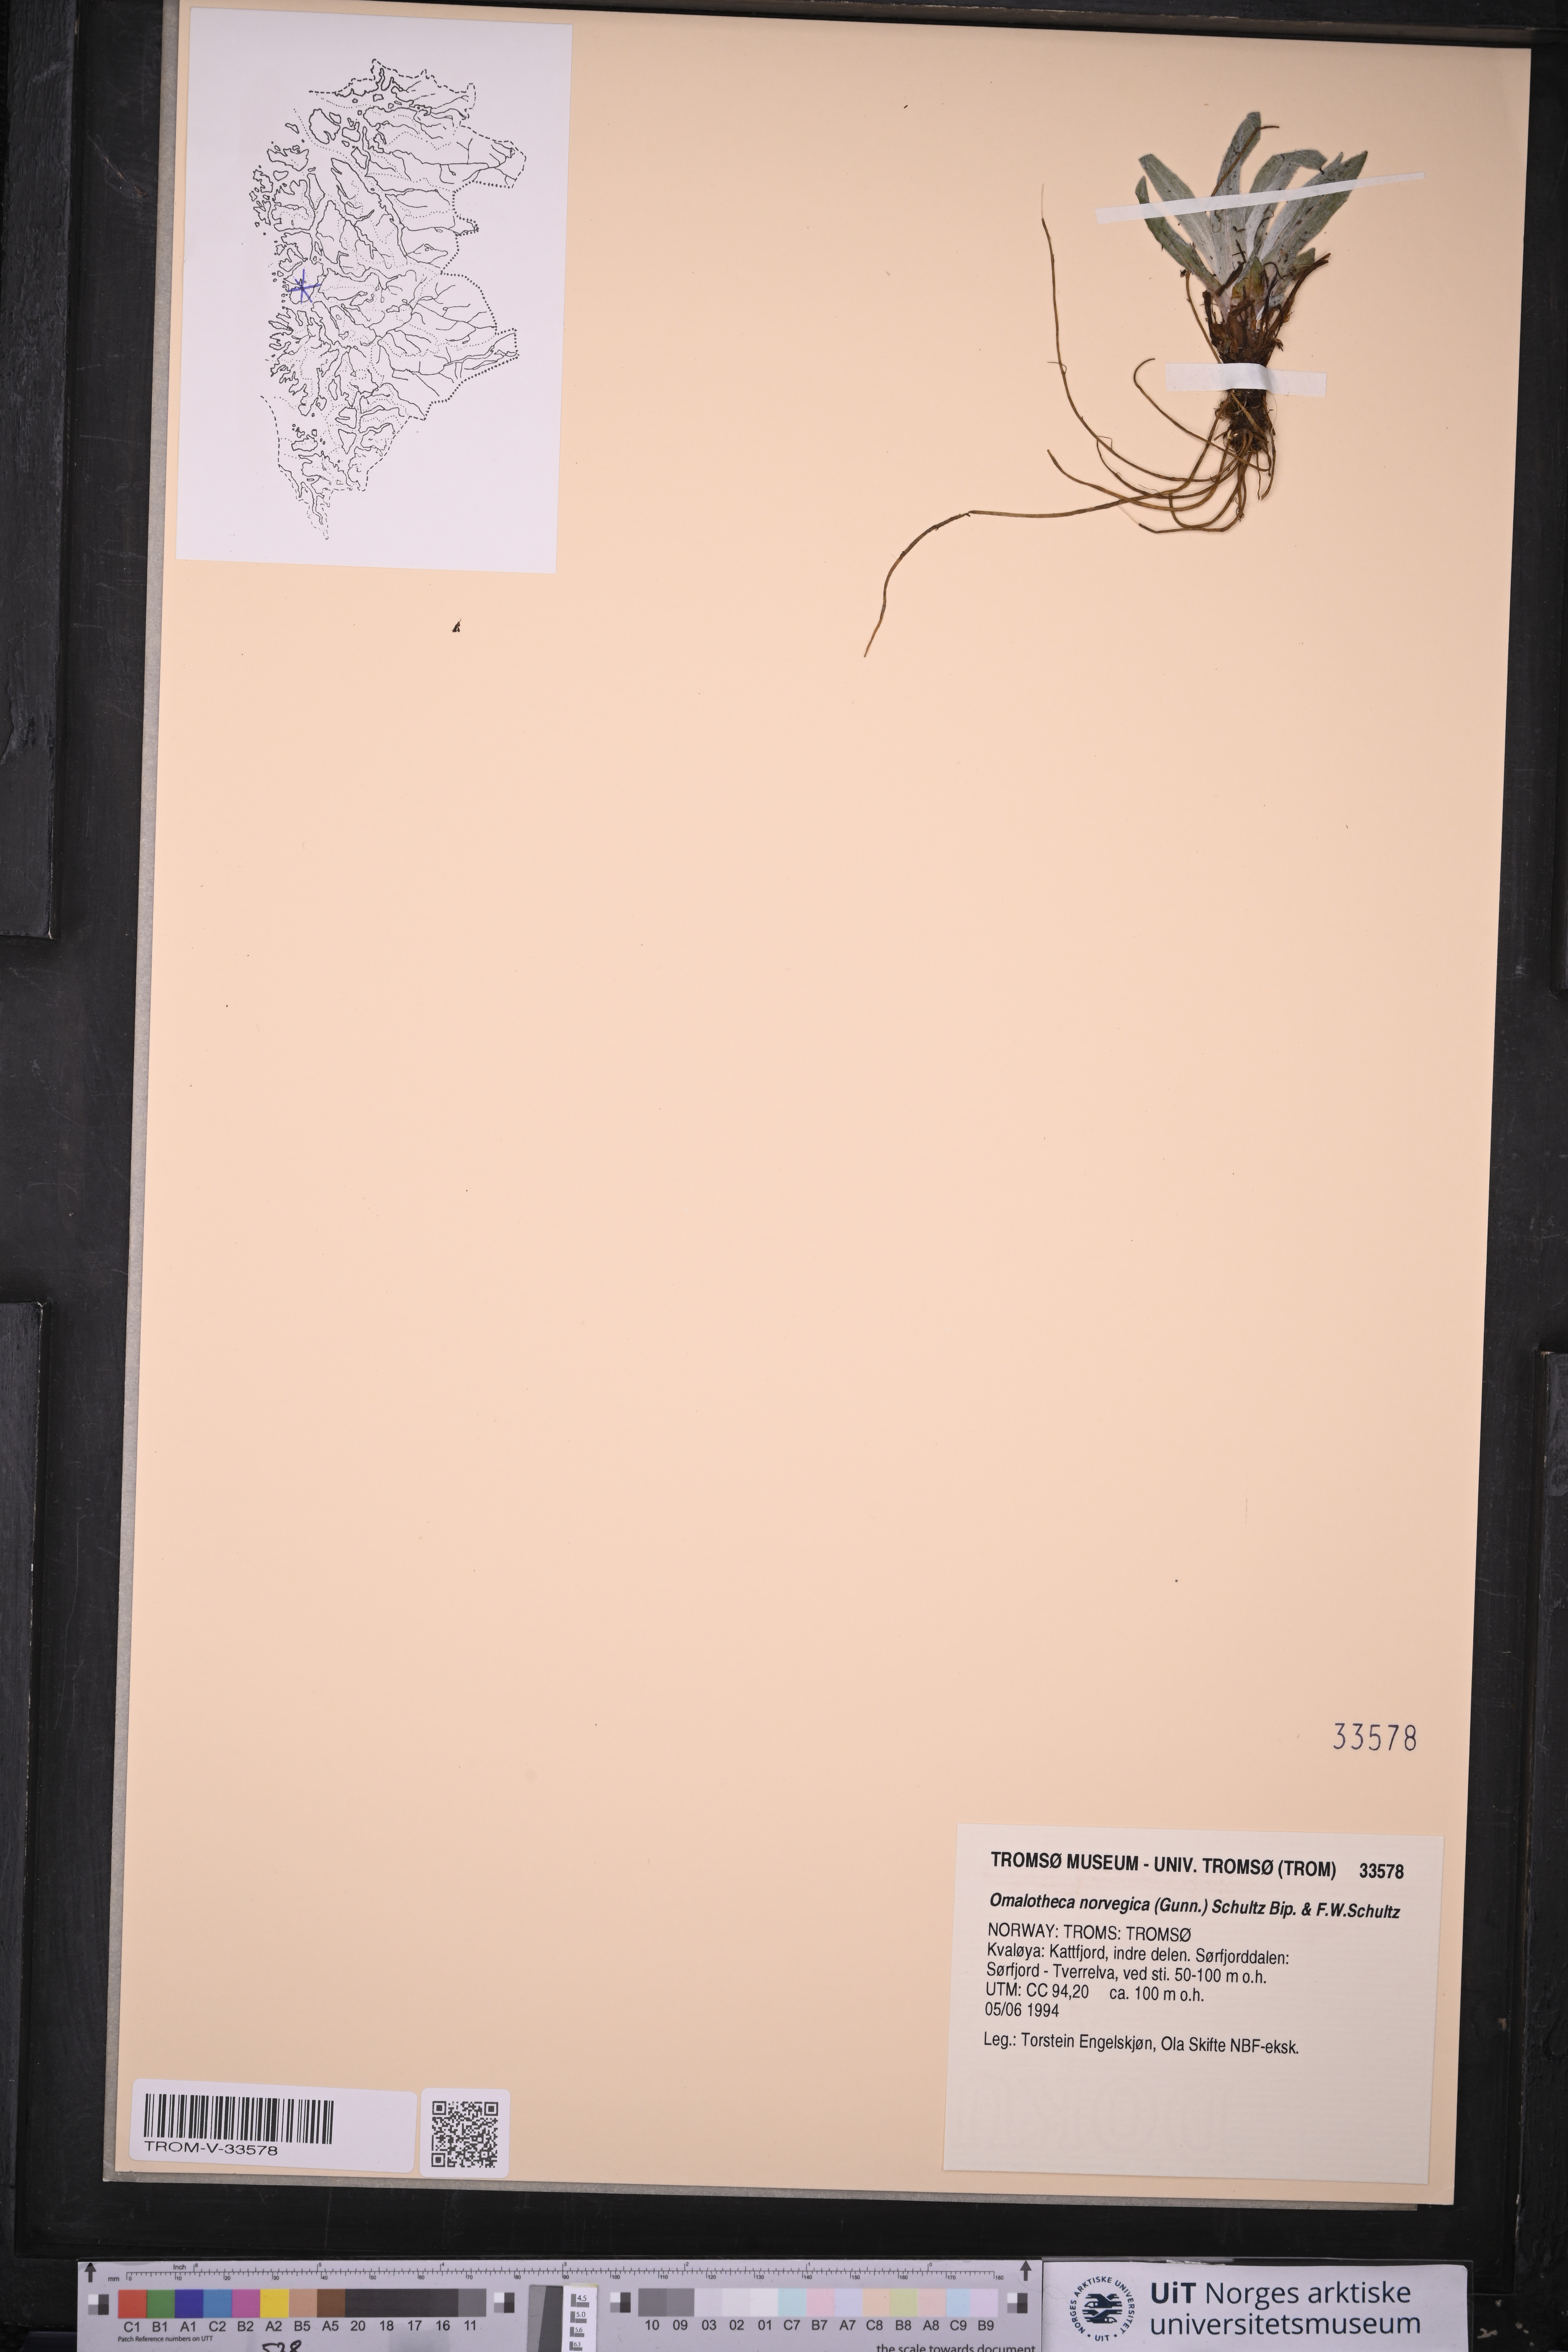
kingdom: Plantae
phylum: Tracheophyta
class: Magnoliopsida
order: Asterales
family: Asteraceae
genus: Omalotheca
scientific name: Omalotheca norvegica
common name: Norwegian arctic-cudweed
